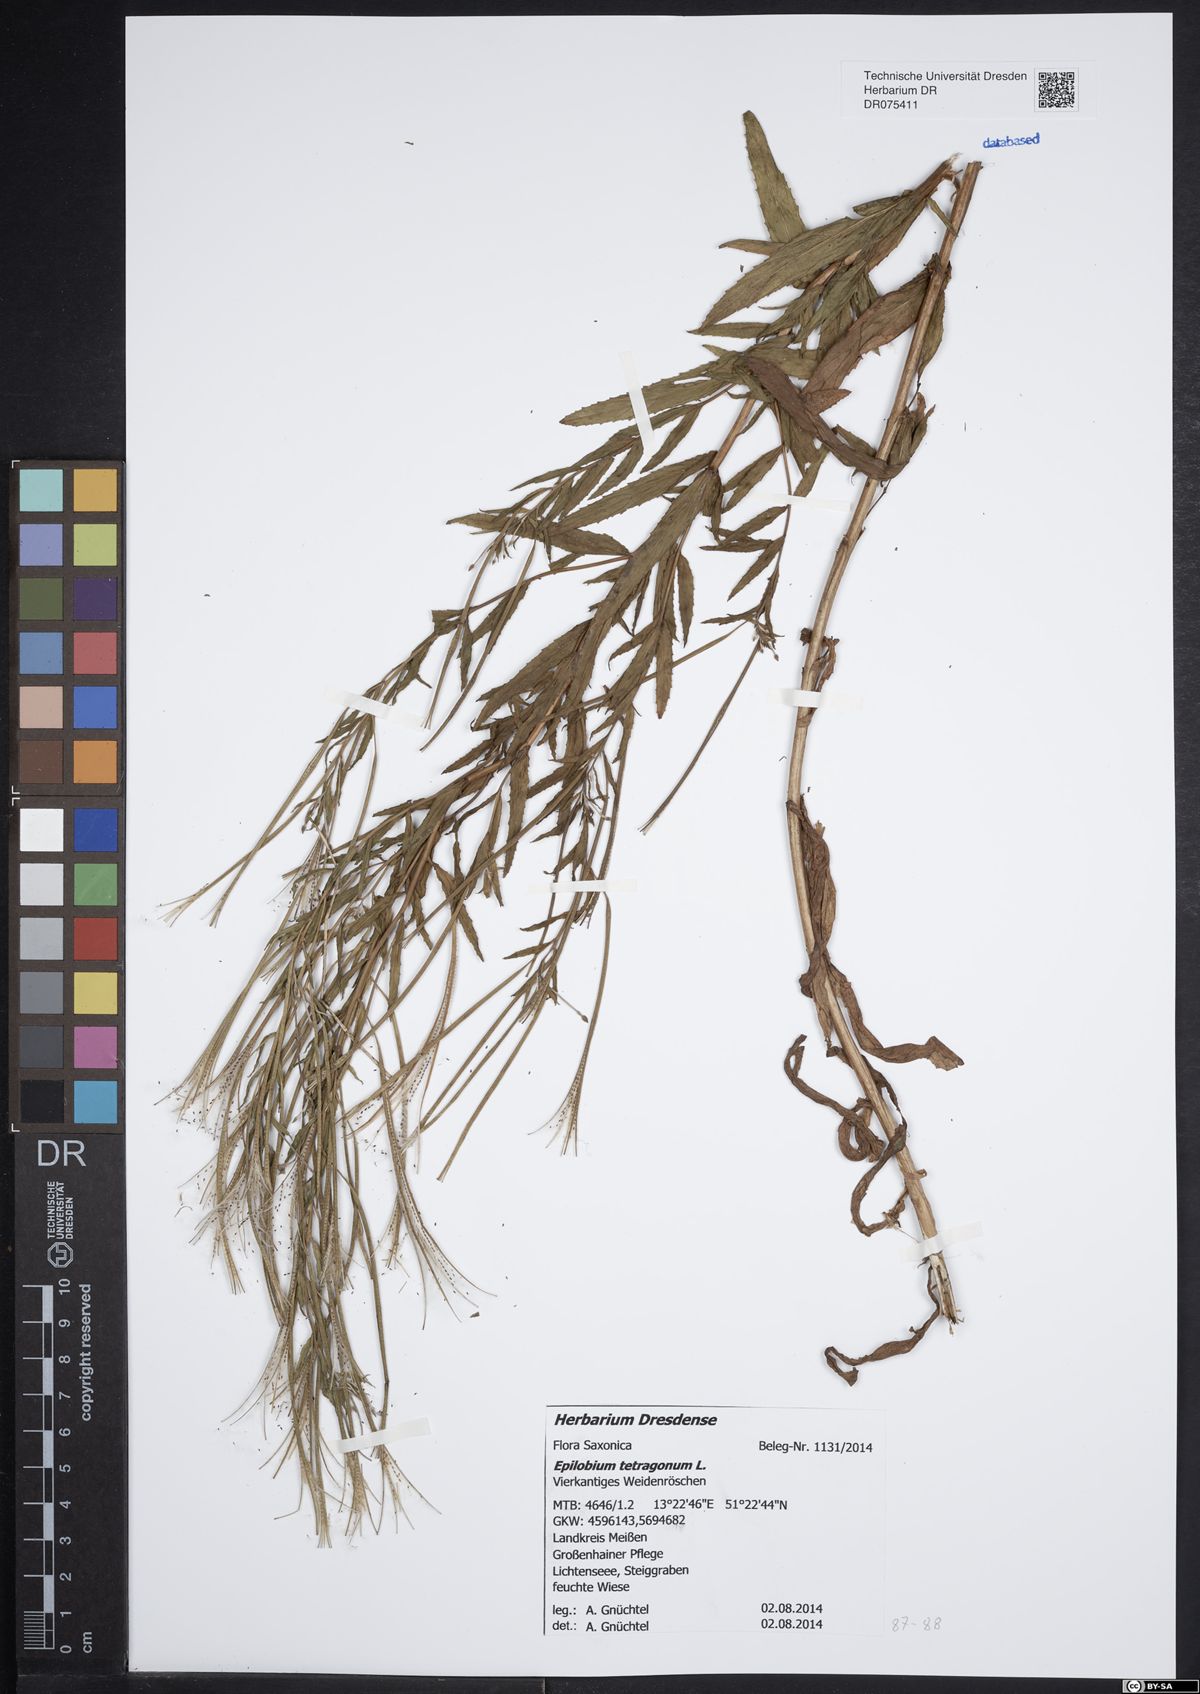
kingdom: Plantae
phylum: Tracheophyta
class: Magnoliopsida
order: Myrtales
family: Onagraceae
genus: Epilobium
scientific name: Epilobium tetragonum
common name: Square-stemmed willowherb
